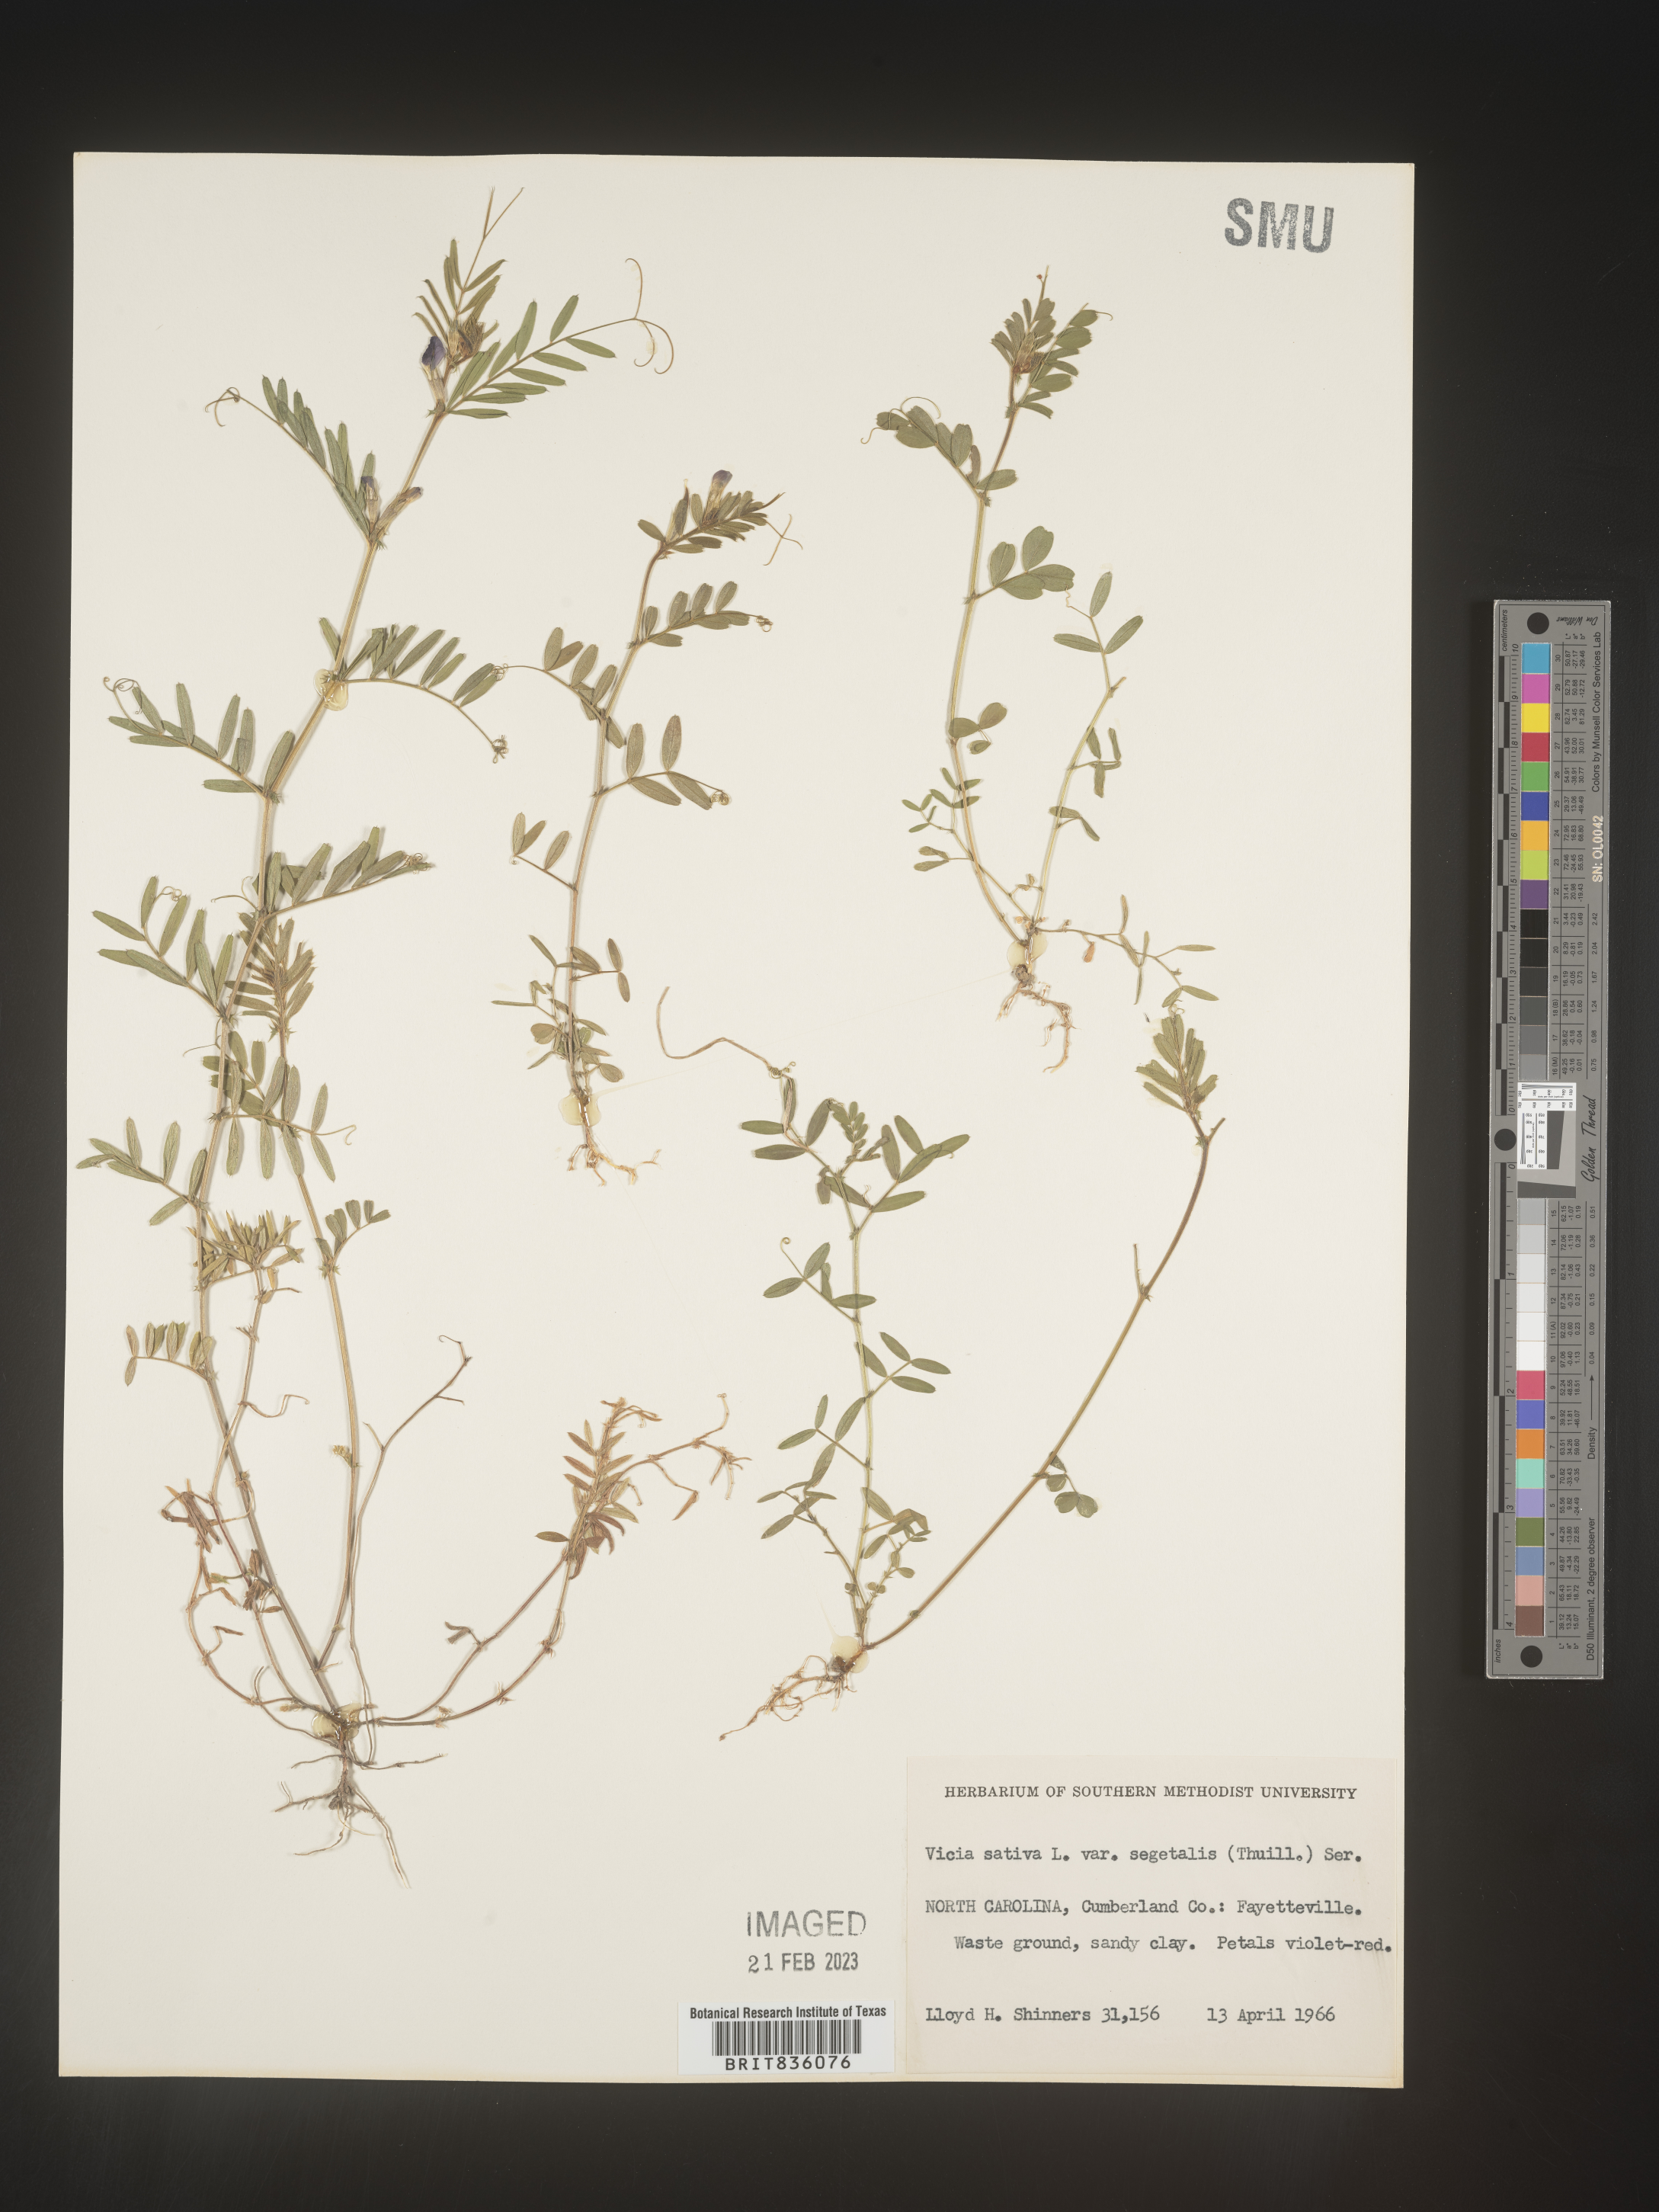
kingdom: Plantae
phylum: Tracheophyta
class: Magnoliopsida
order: Fabales
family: Fabaceae
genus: Vicia
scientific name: Vicia sativa
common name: Garden vetch
